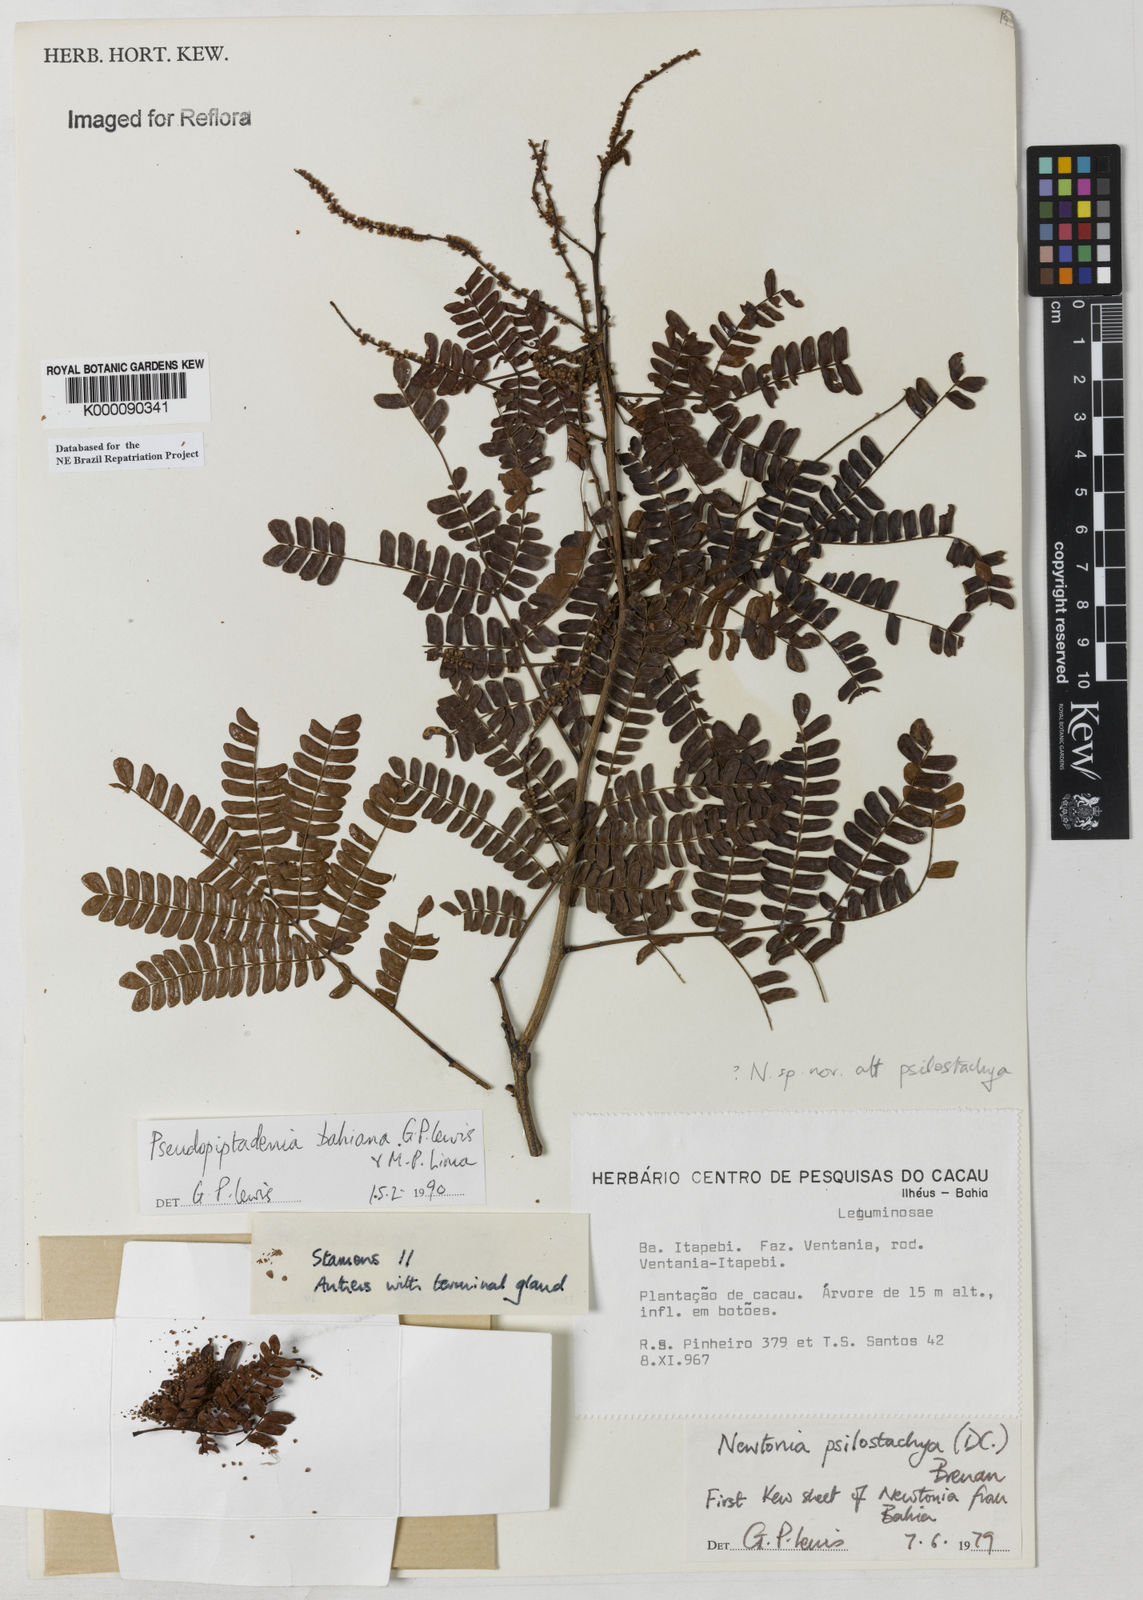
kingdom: Plantae
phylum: Tracheophyta
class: Magnoliopsida
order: Fabales
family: Fabaceae
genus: Pseudopiptadenia
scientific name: Pseudopiptadenia bahiana
